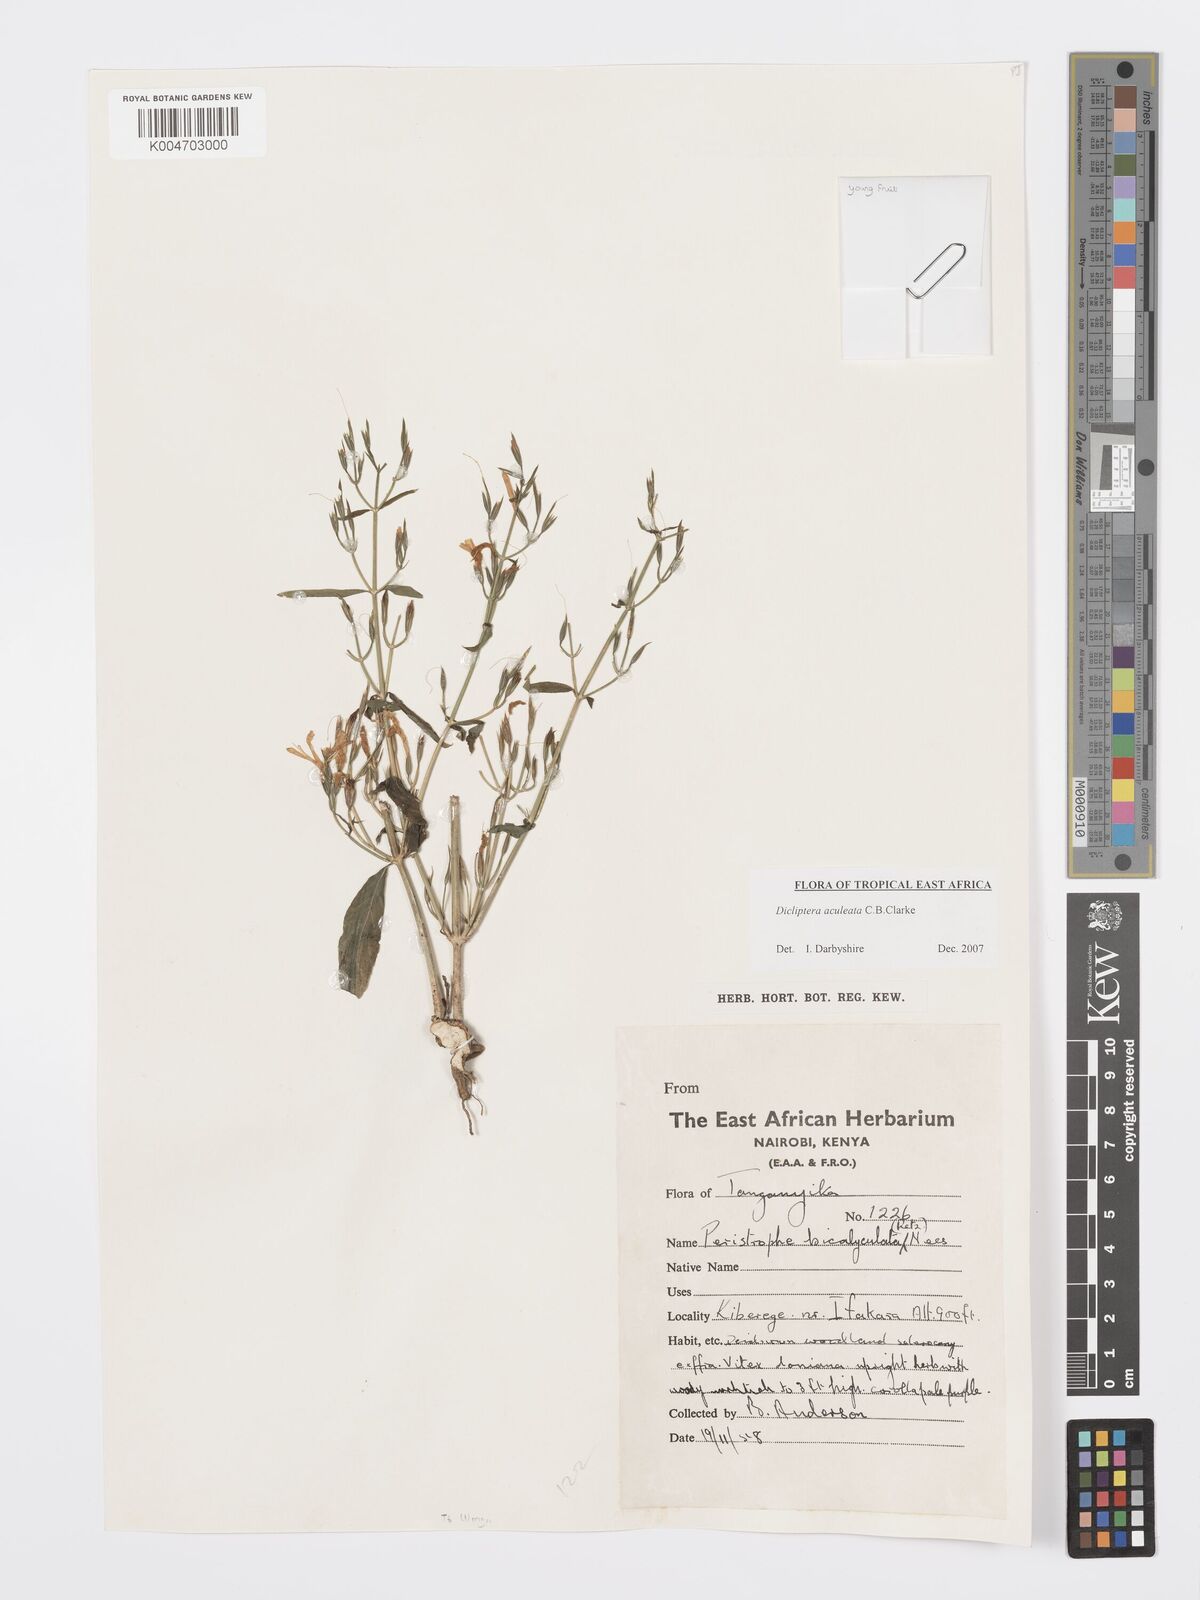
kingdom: Plantae
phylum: Tracheophyta
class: Magnoliopsida
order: Lamiales
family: Acanthaceae
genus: Dicliptera
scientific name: Dicliptera hensii
